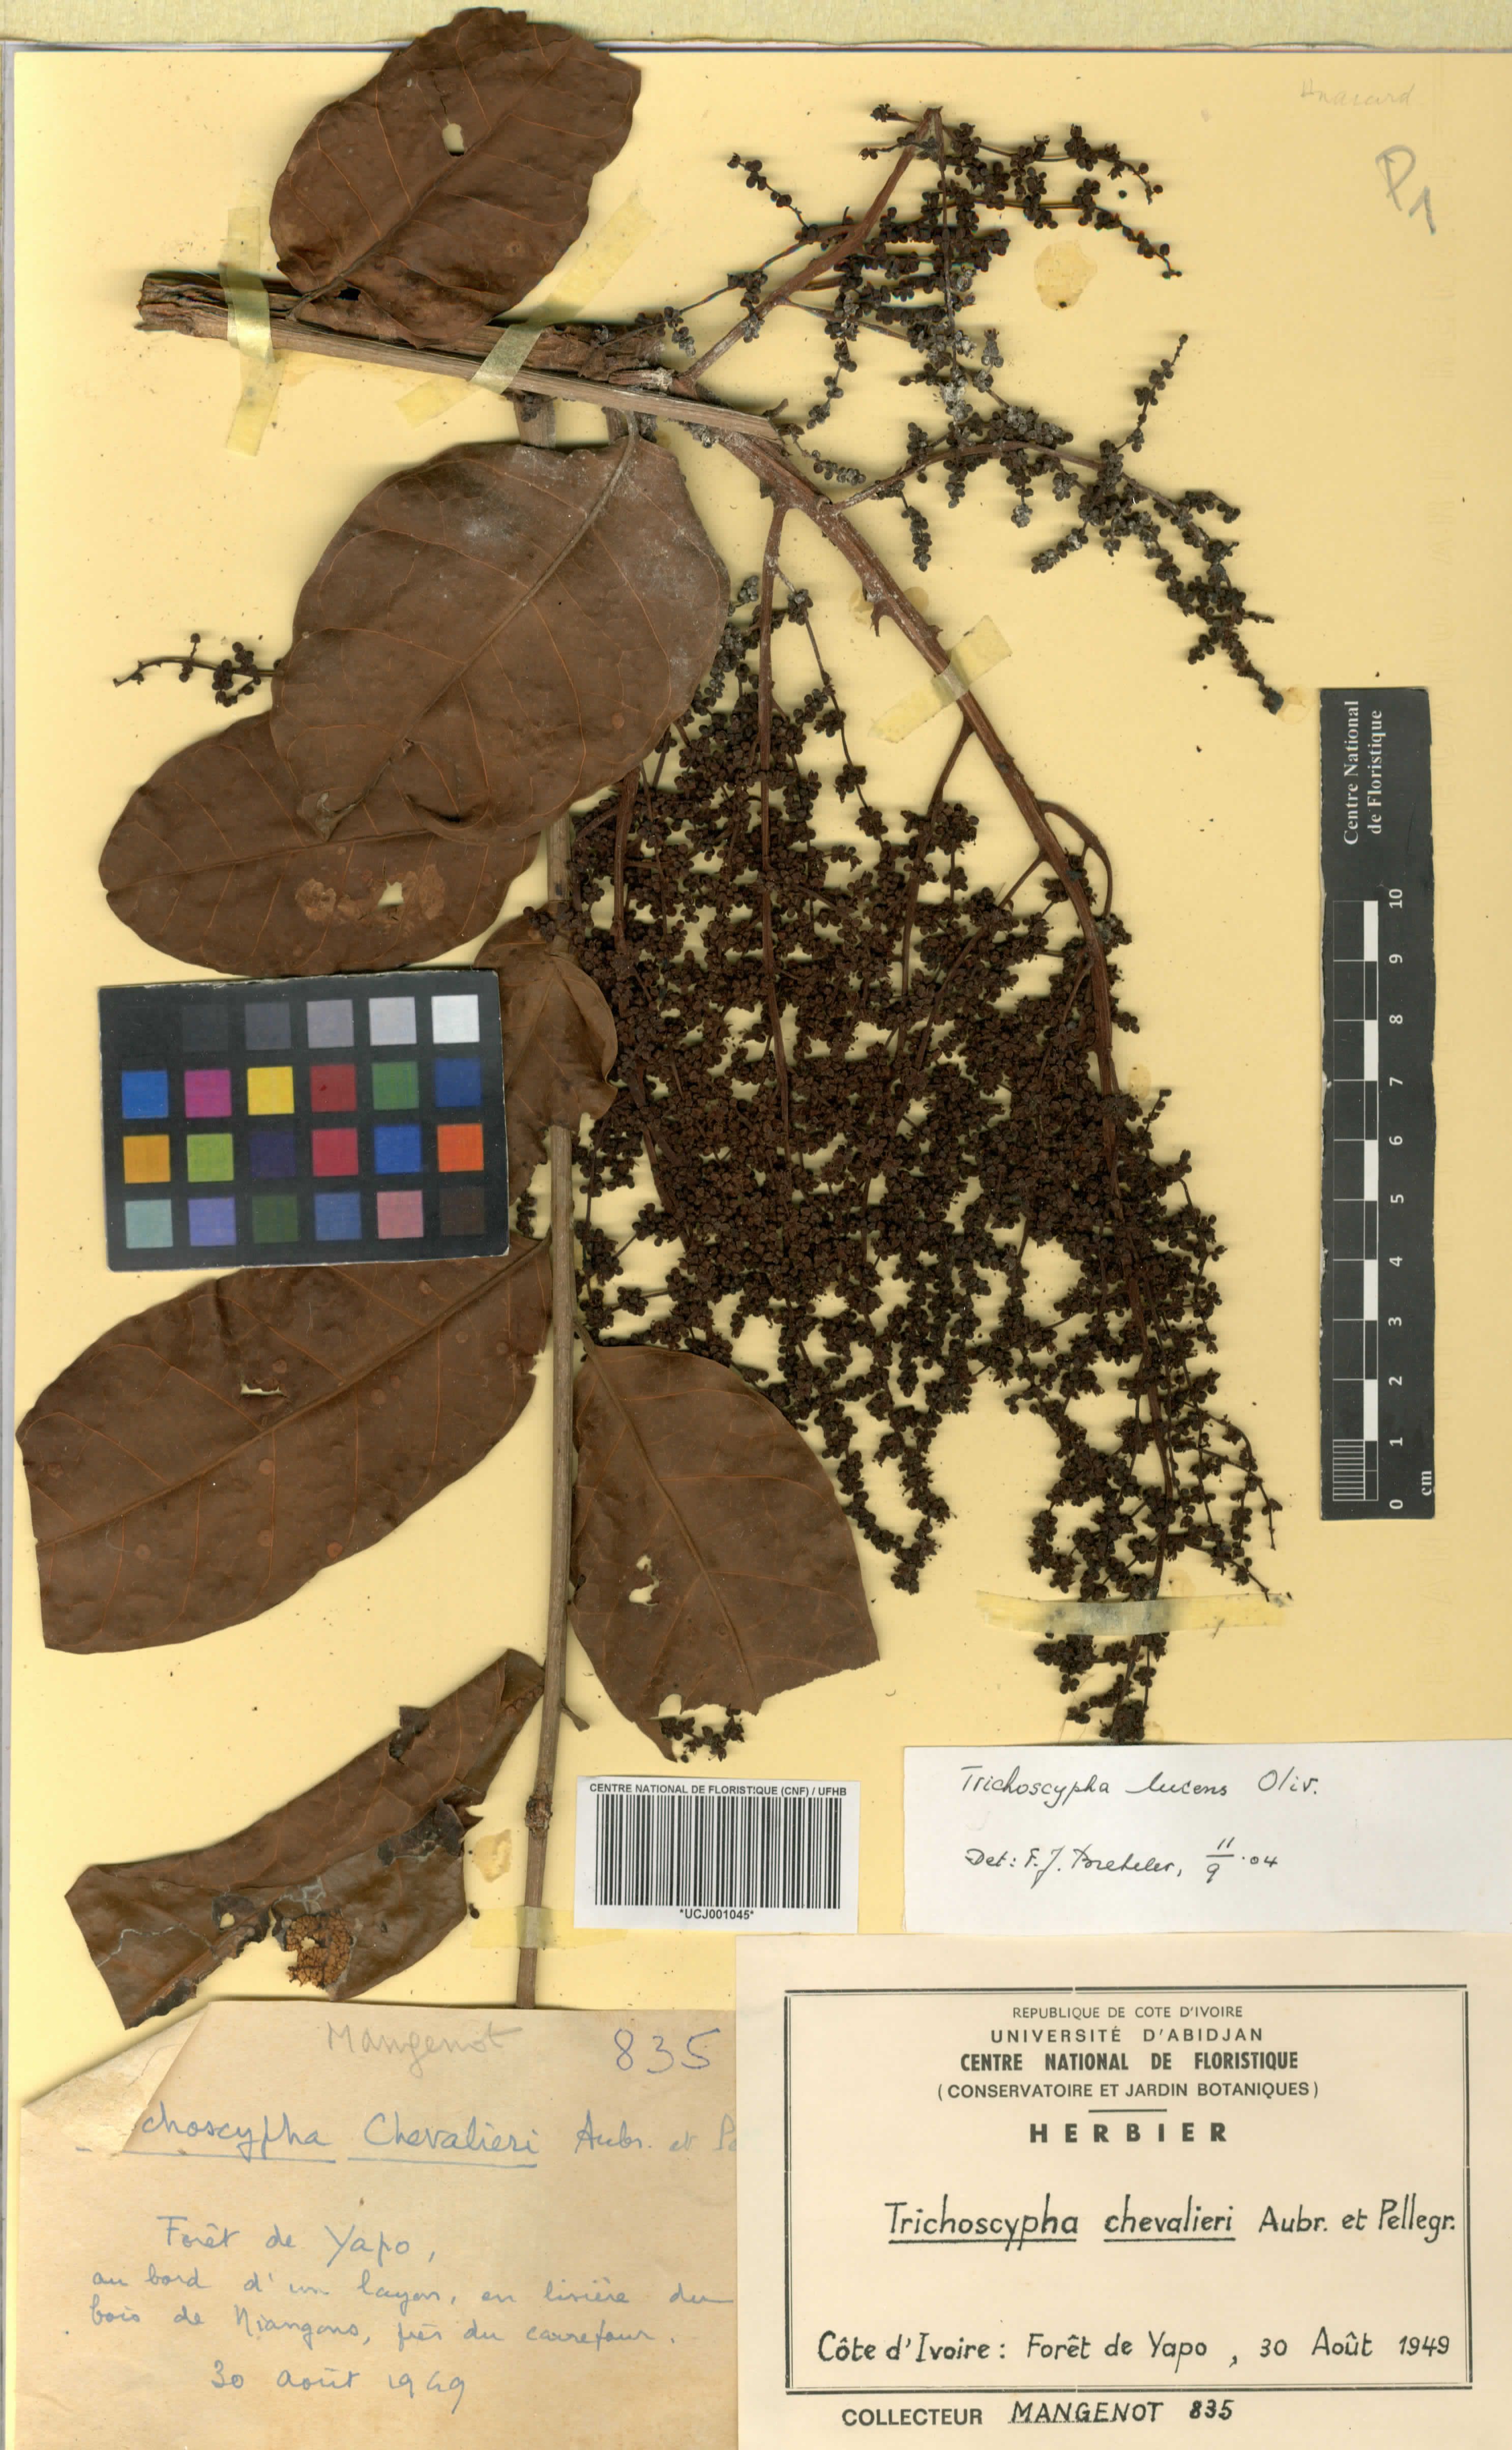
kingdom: Plantae
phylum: Tracheophyta
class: Magnoliopsida
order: Sapindales
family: Anacardiaceae
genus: Trichoscypha
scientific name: Trichoscypha lucens
